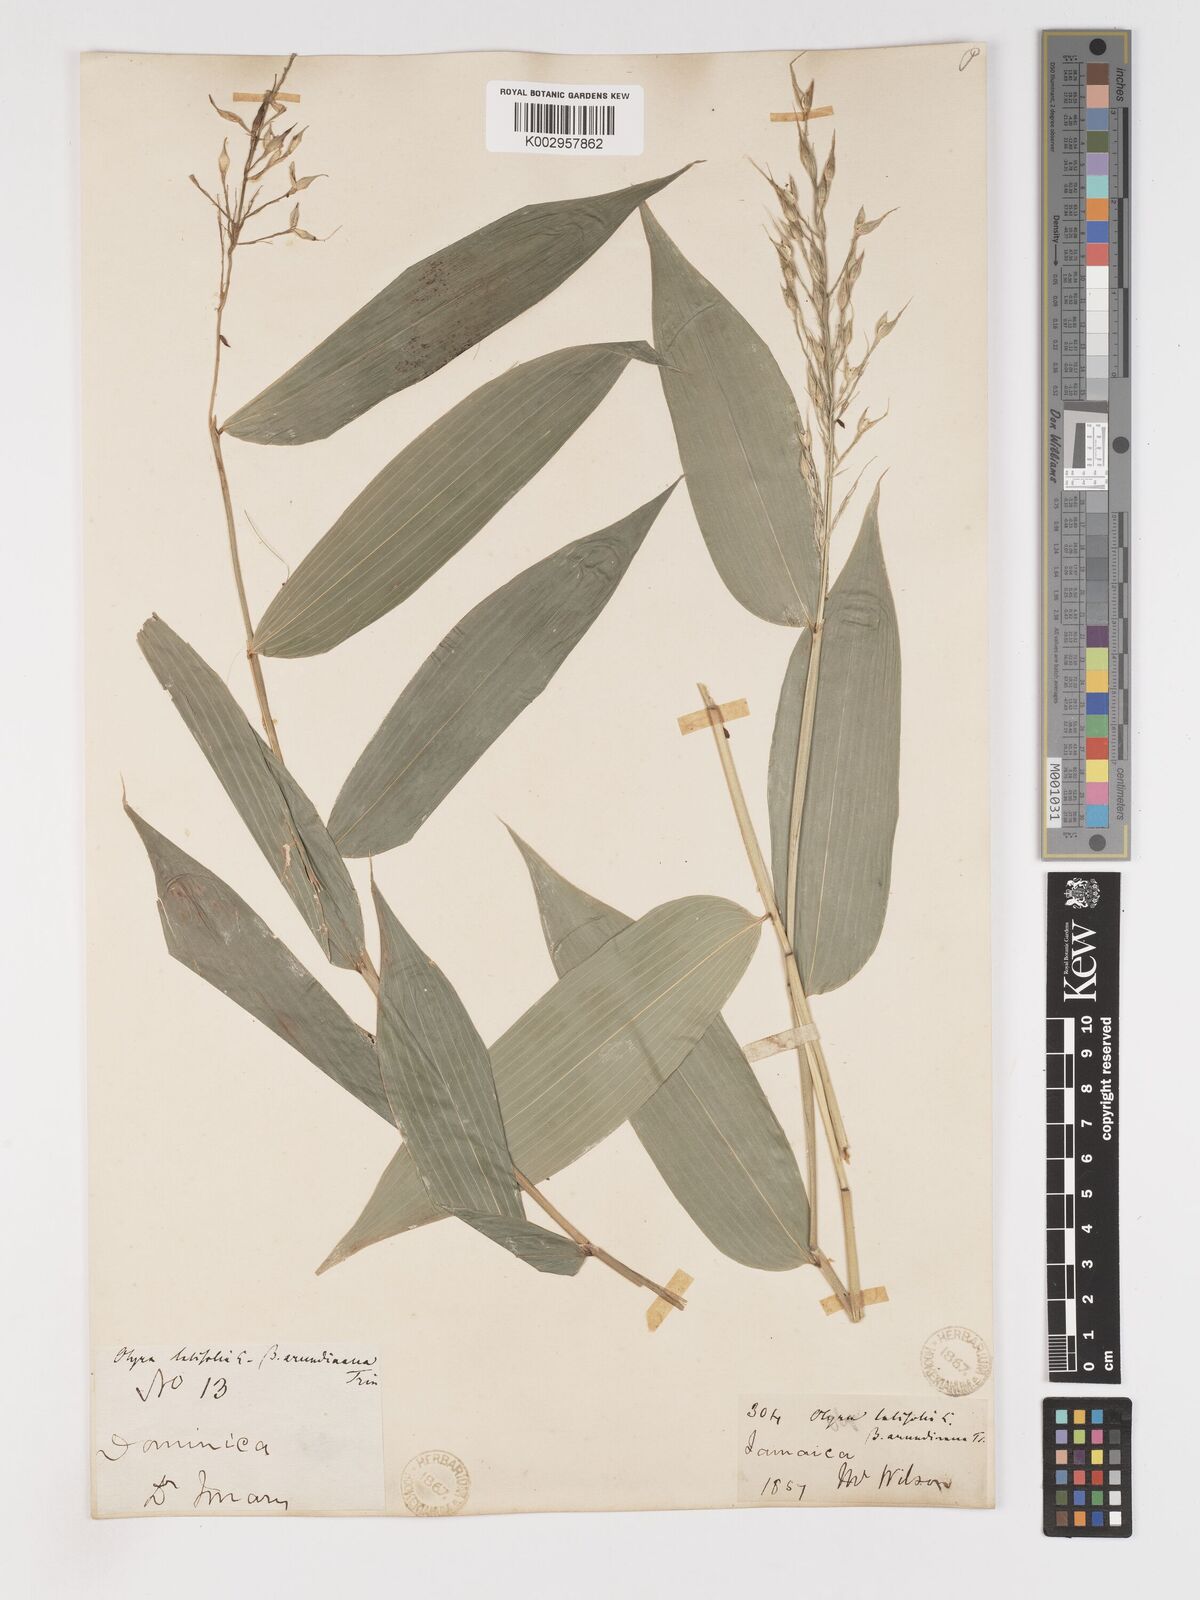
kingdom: Plantae
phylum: Tracheophyta
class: Liliopsida
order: Poales
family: Poaceae
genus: Olyra
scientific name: Olyra latifolia
